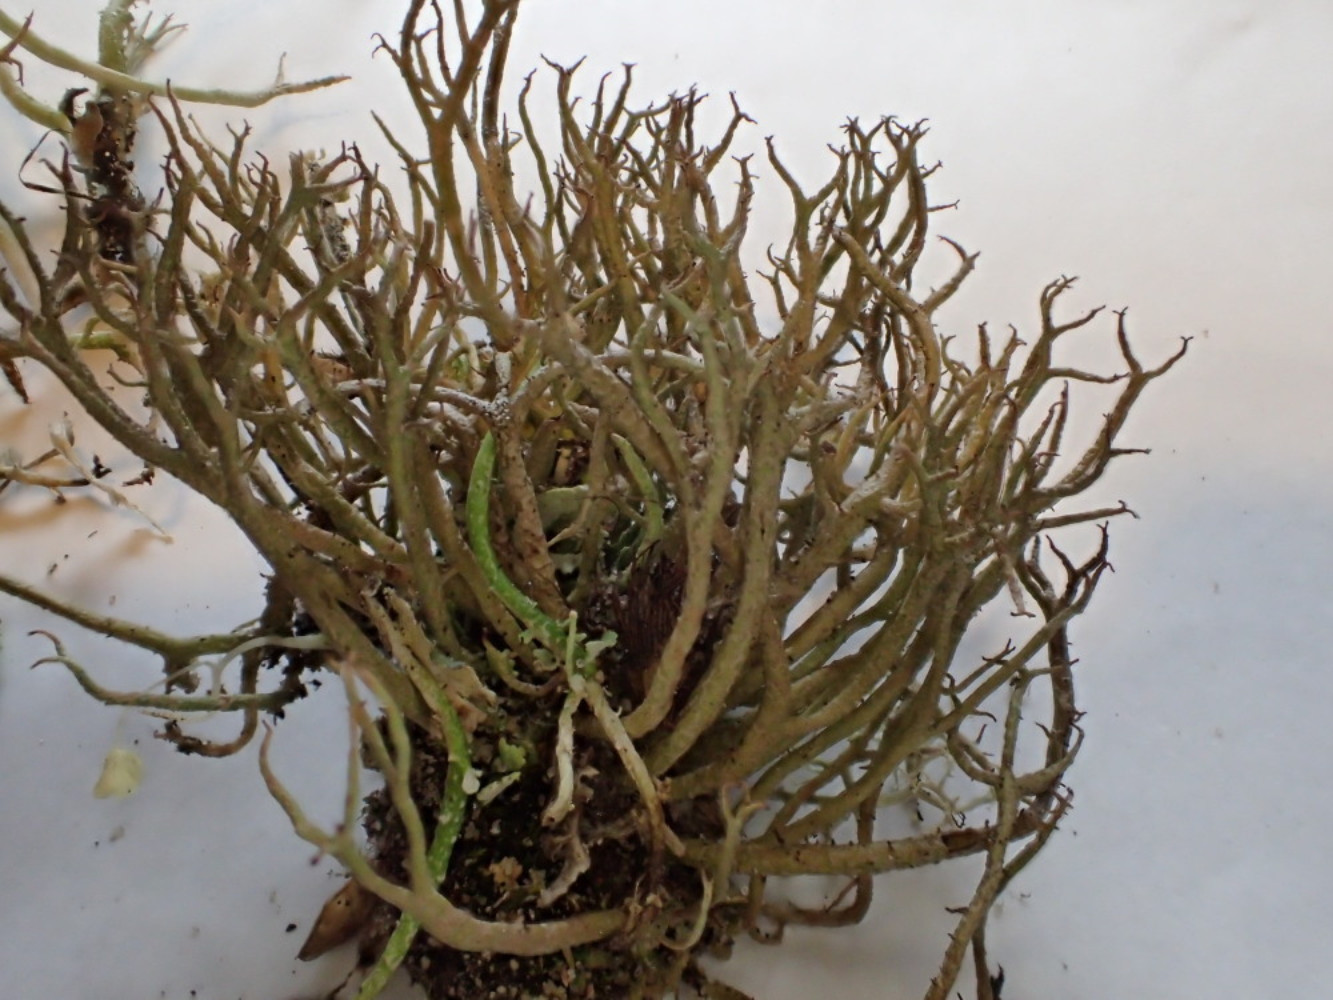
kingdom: Fungi
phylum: Ascomycota
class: Lecanoromycetes
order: Lecanorales
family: Cladoniaceae
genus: Cladonia
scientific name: Cladonia furcata
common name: kløftet bægerlav
